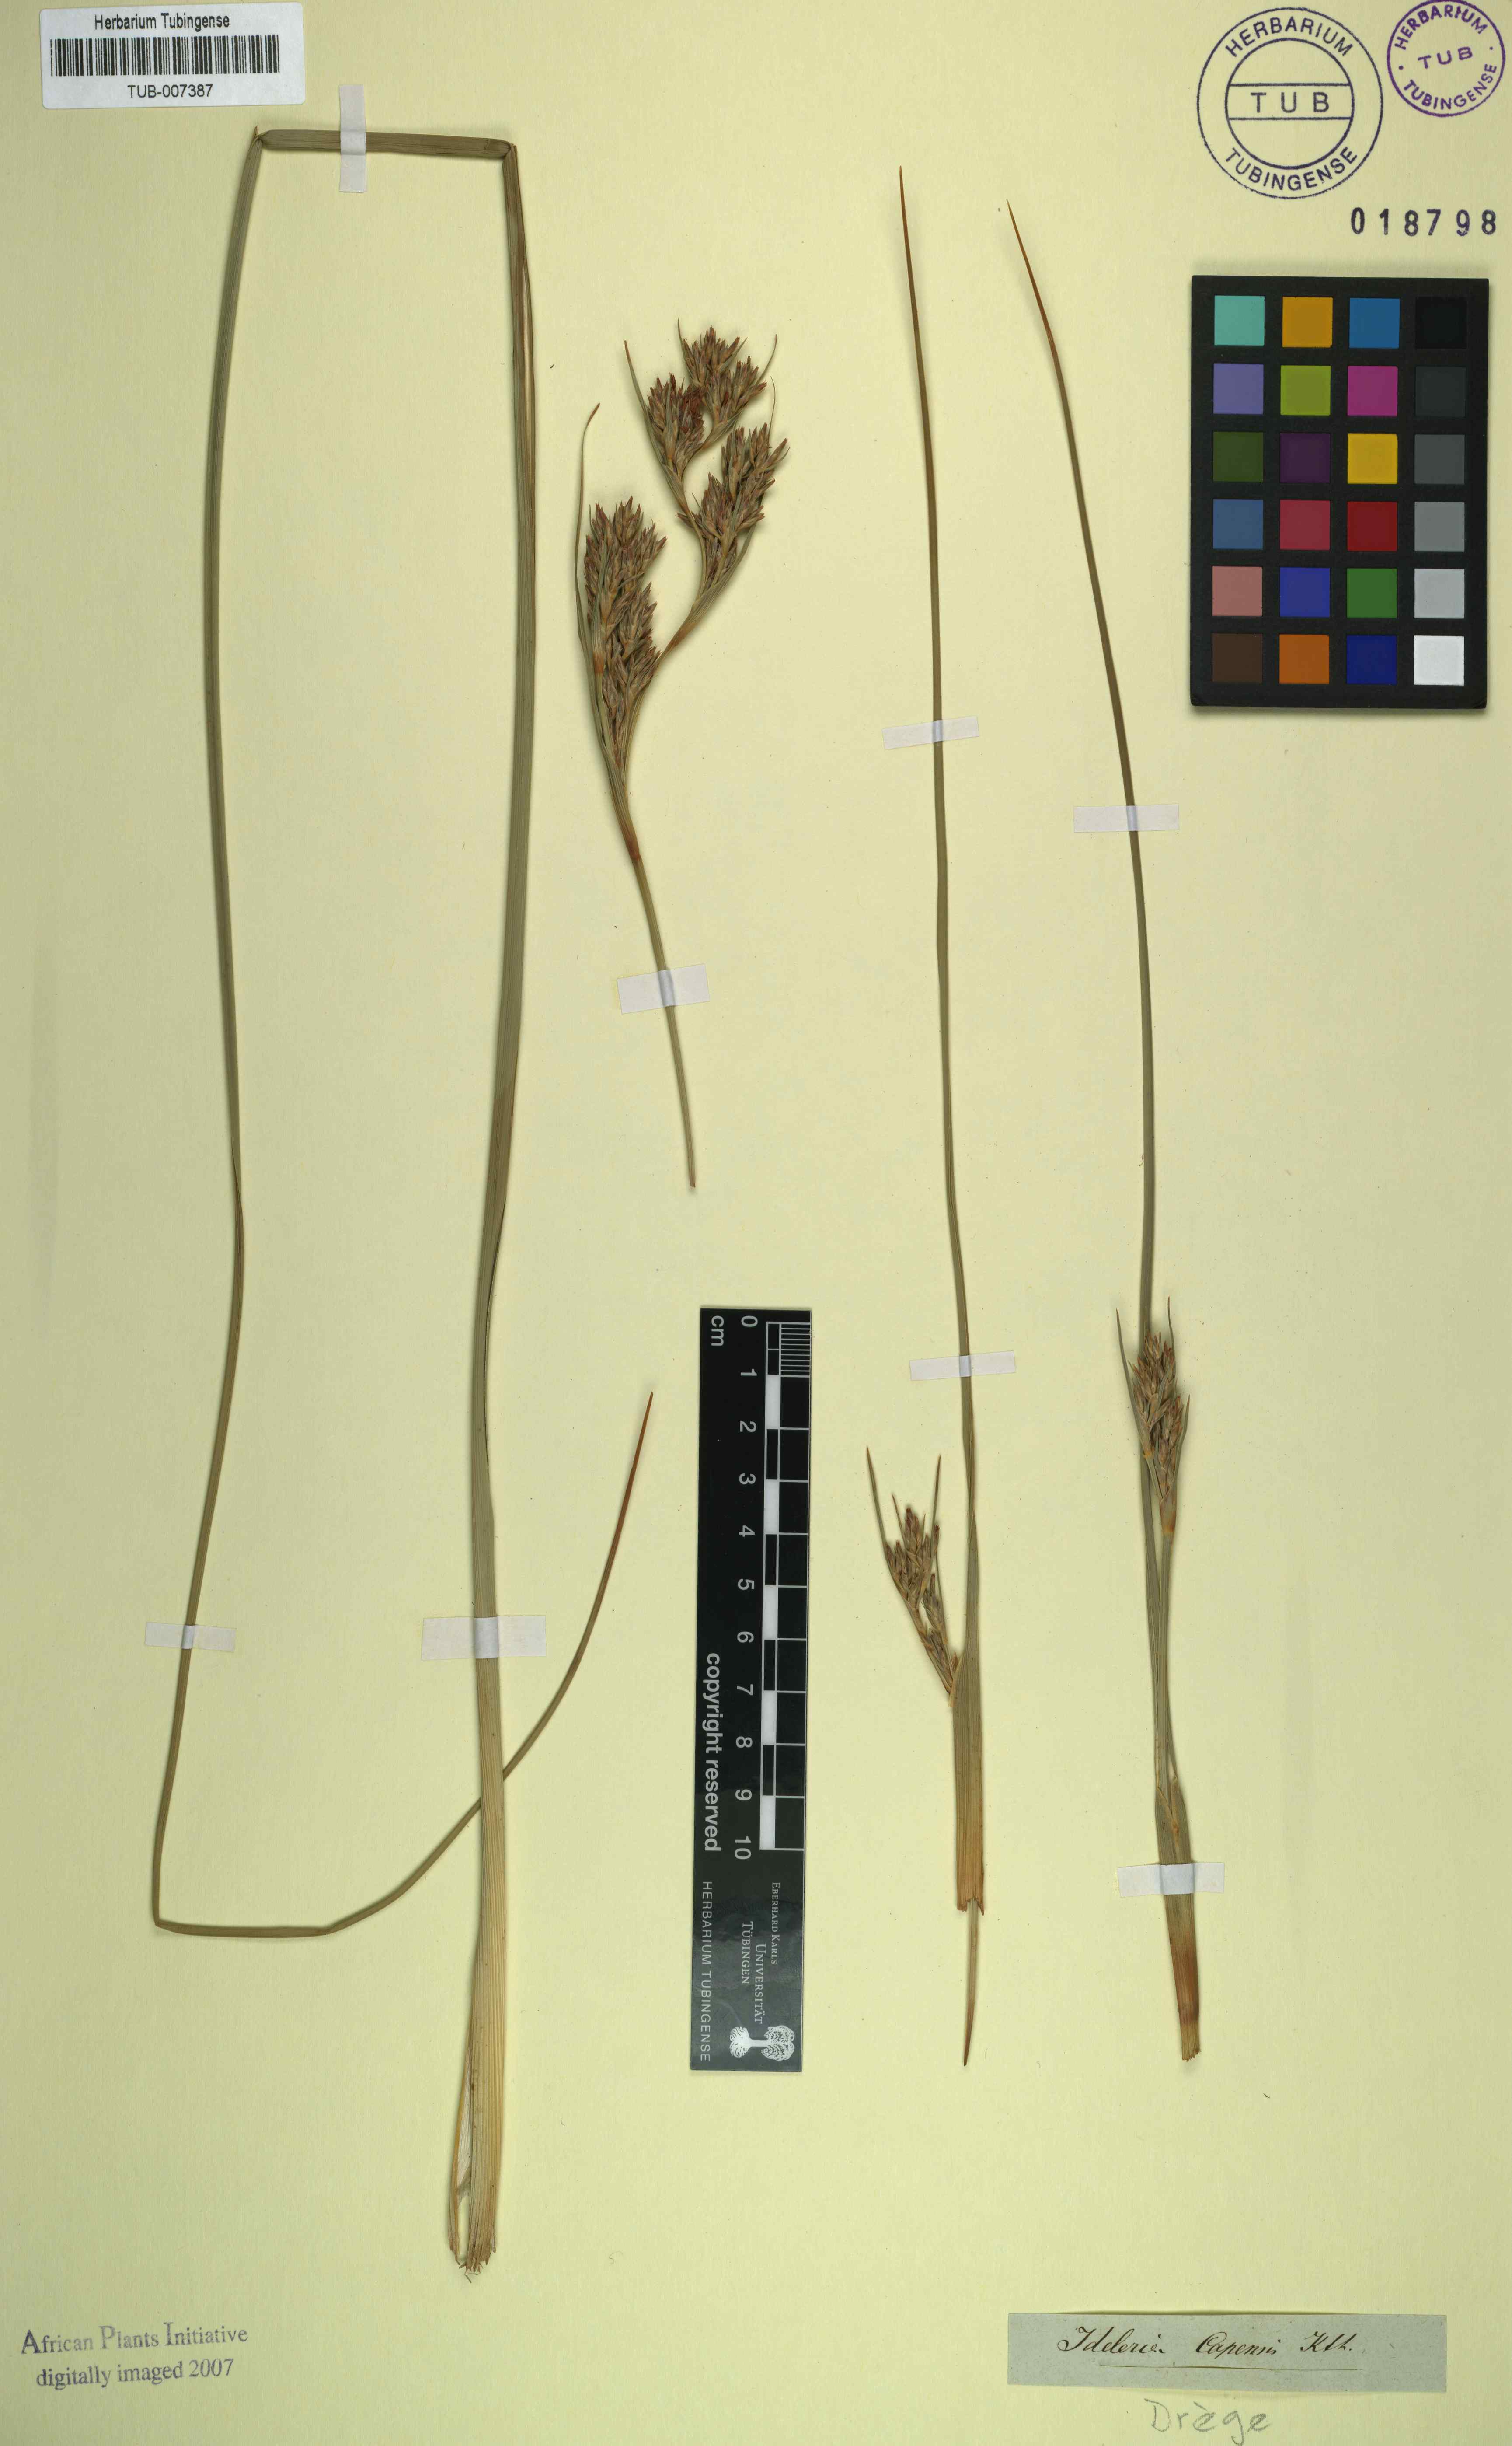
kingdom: Plantae
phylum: Tracheophyta
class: Liliopsida
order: Poales
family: Cyperaceae
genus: Cyathocoma
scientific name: Cyathocoma hexandra
